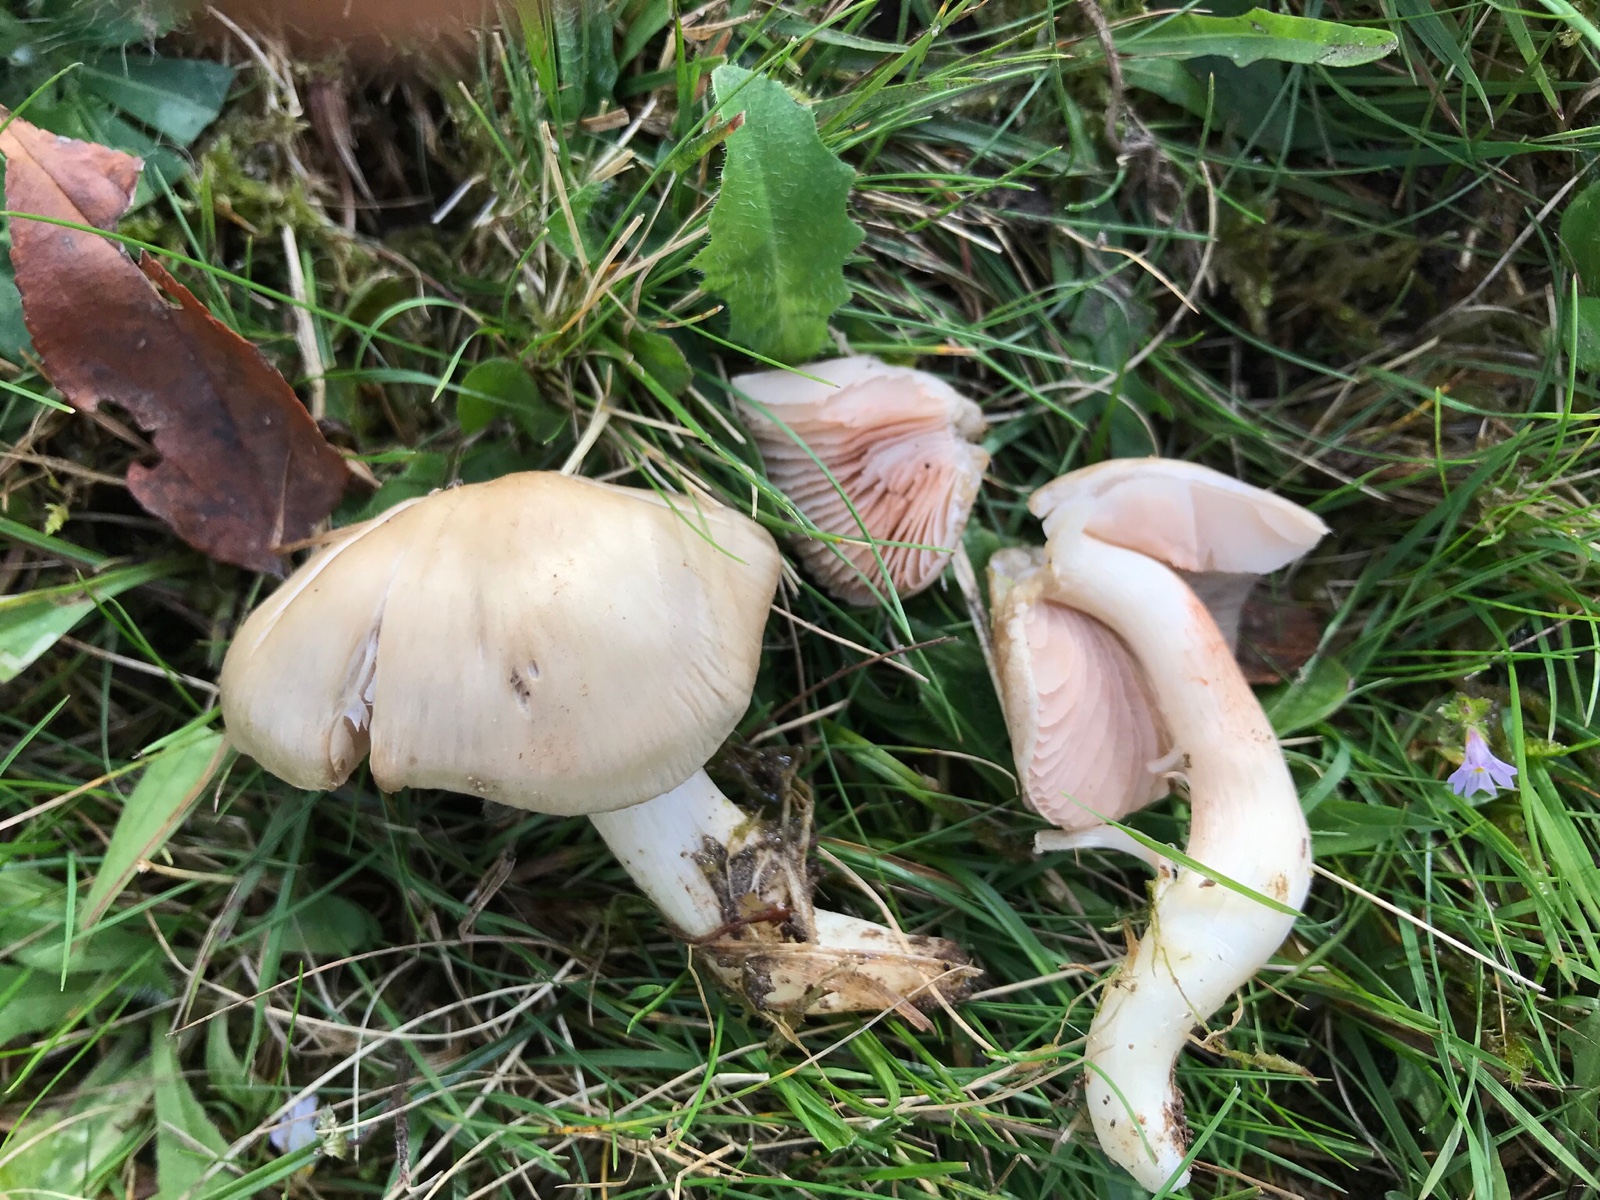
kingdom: Fungi
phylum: Basidiomycota
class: Agaricomycetes
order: Agaricales
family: Entolomataceae
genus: Entoloma
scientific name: Entoloma prunuloides
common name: mel-rødblad
